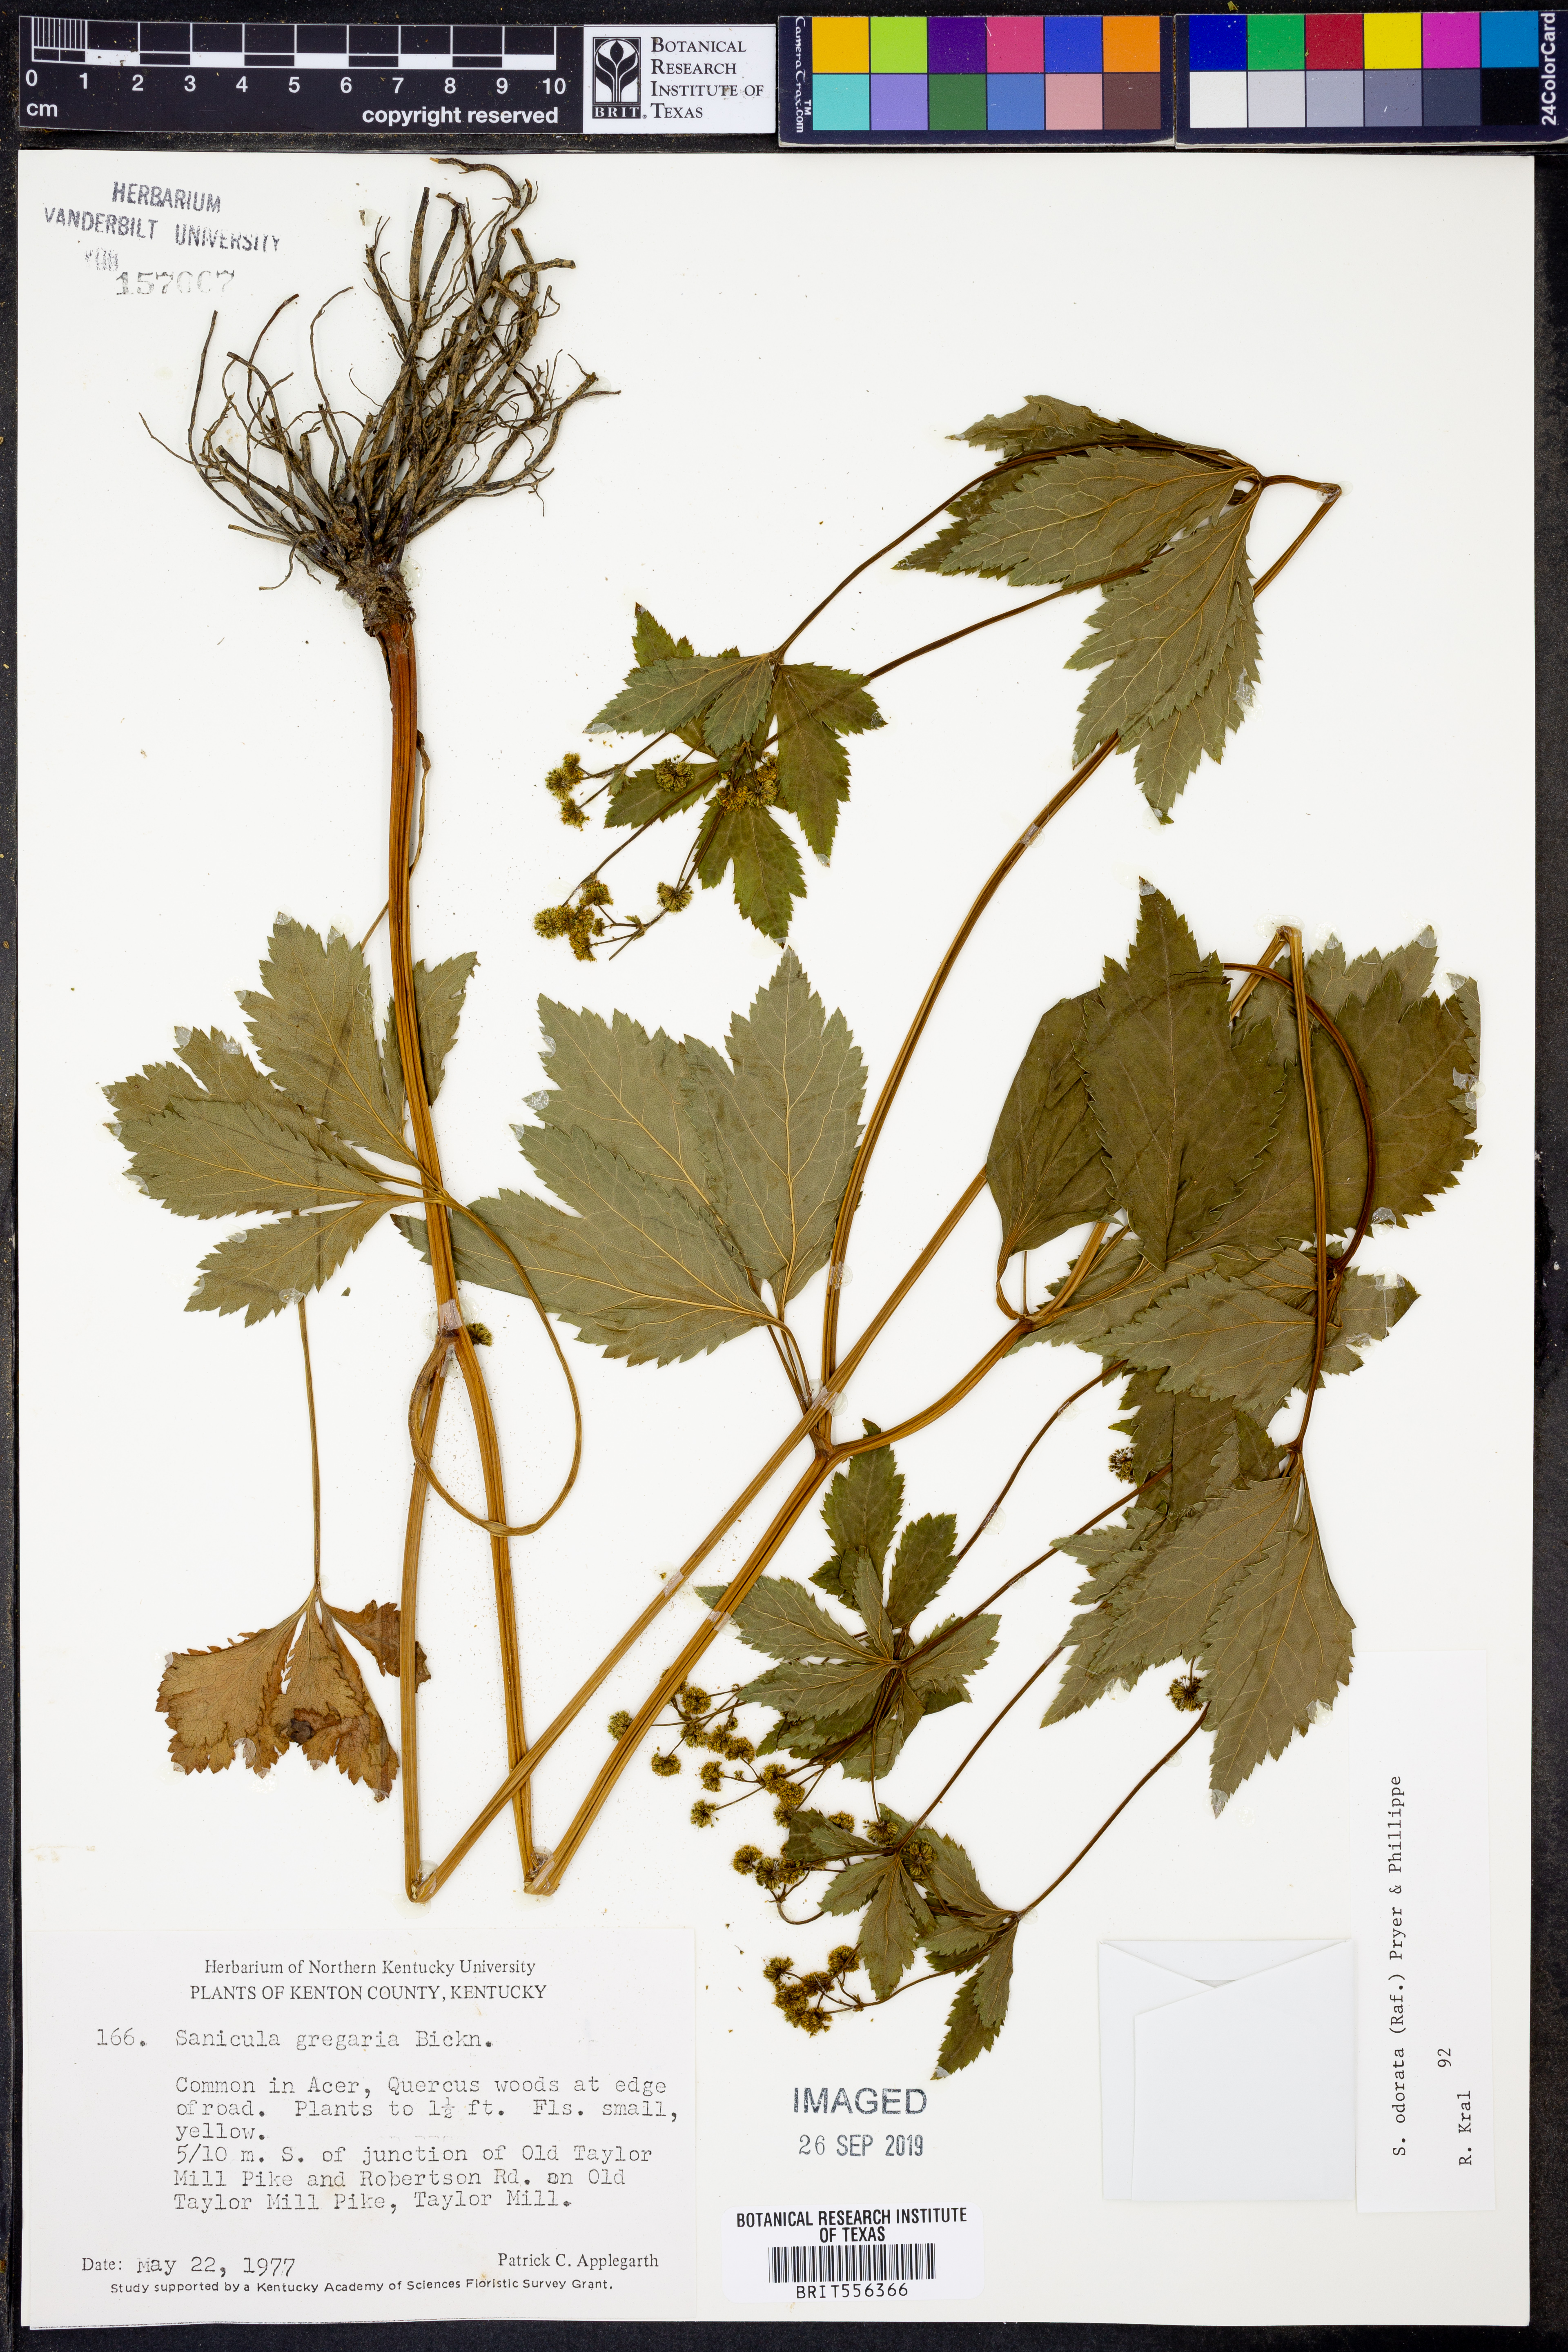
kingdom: Plantae
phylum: Tracheophyta
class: Magnoliopsida
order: Apiales
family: Apiaceae
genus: Sanicula
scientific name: Sanicula odorata
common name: Cluster sanicle
